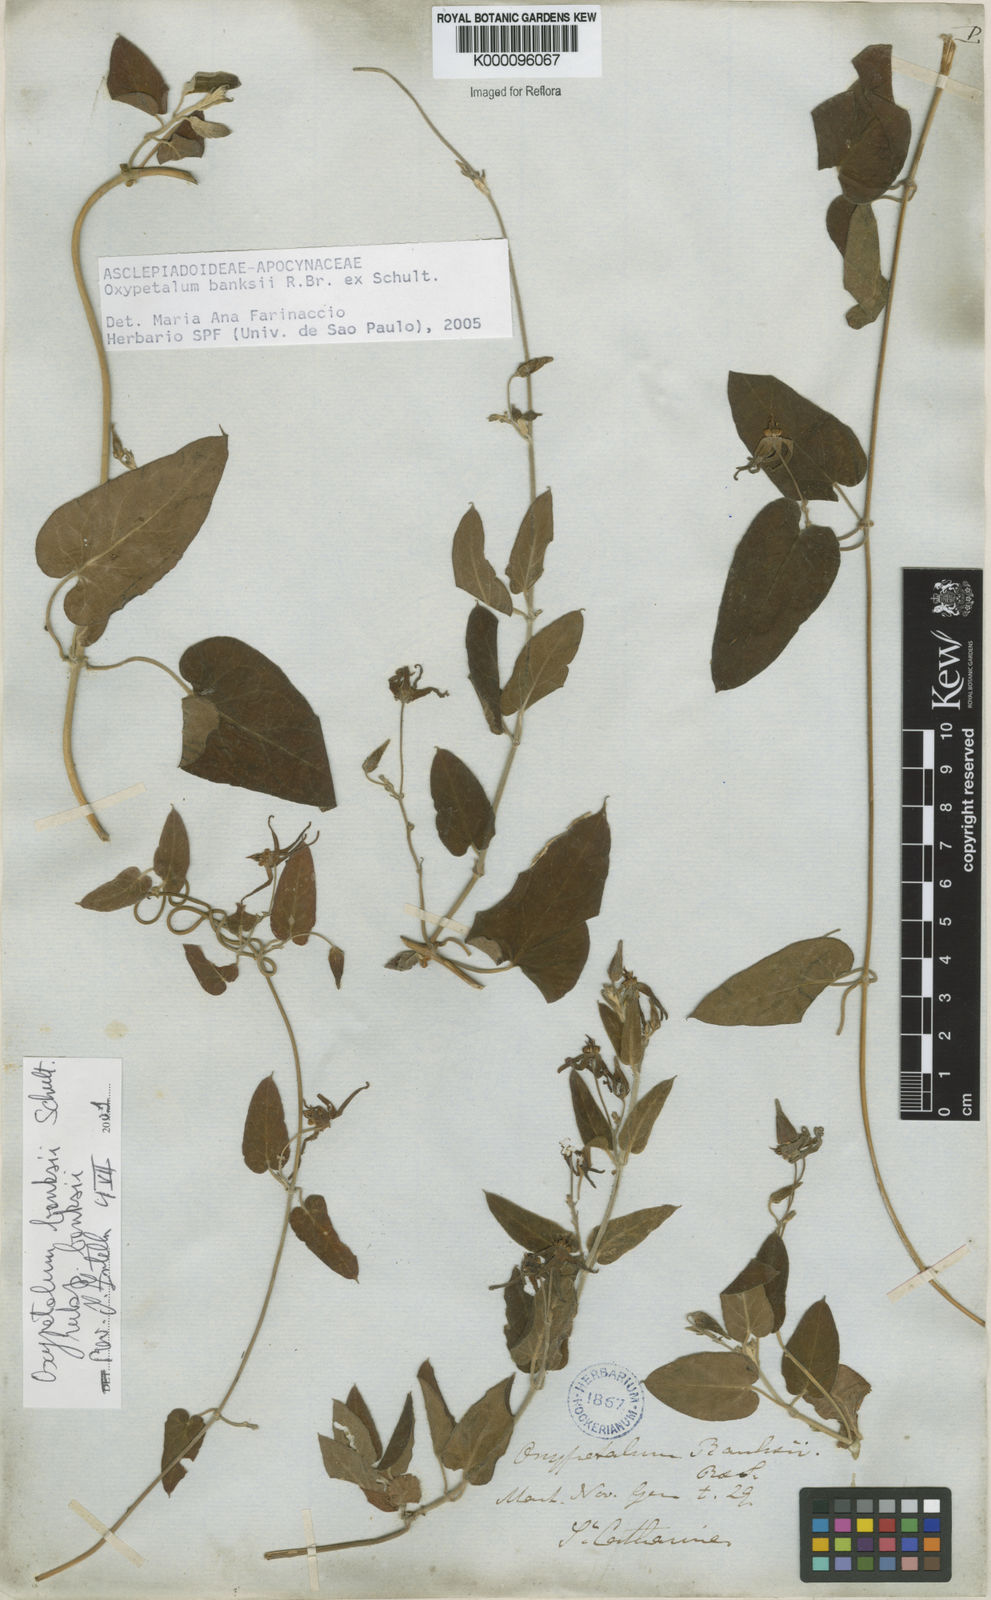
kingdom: Plantae
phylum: Tracheophyta
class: Magnoliopsida
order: Gentianales
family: Apocynaceae
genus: Oxypetalum
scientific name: Oxypetalum banksii
